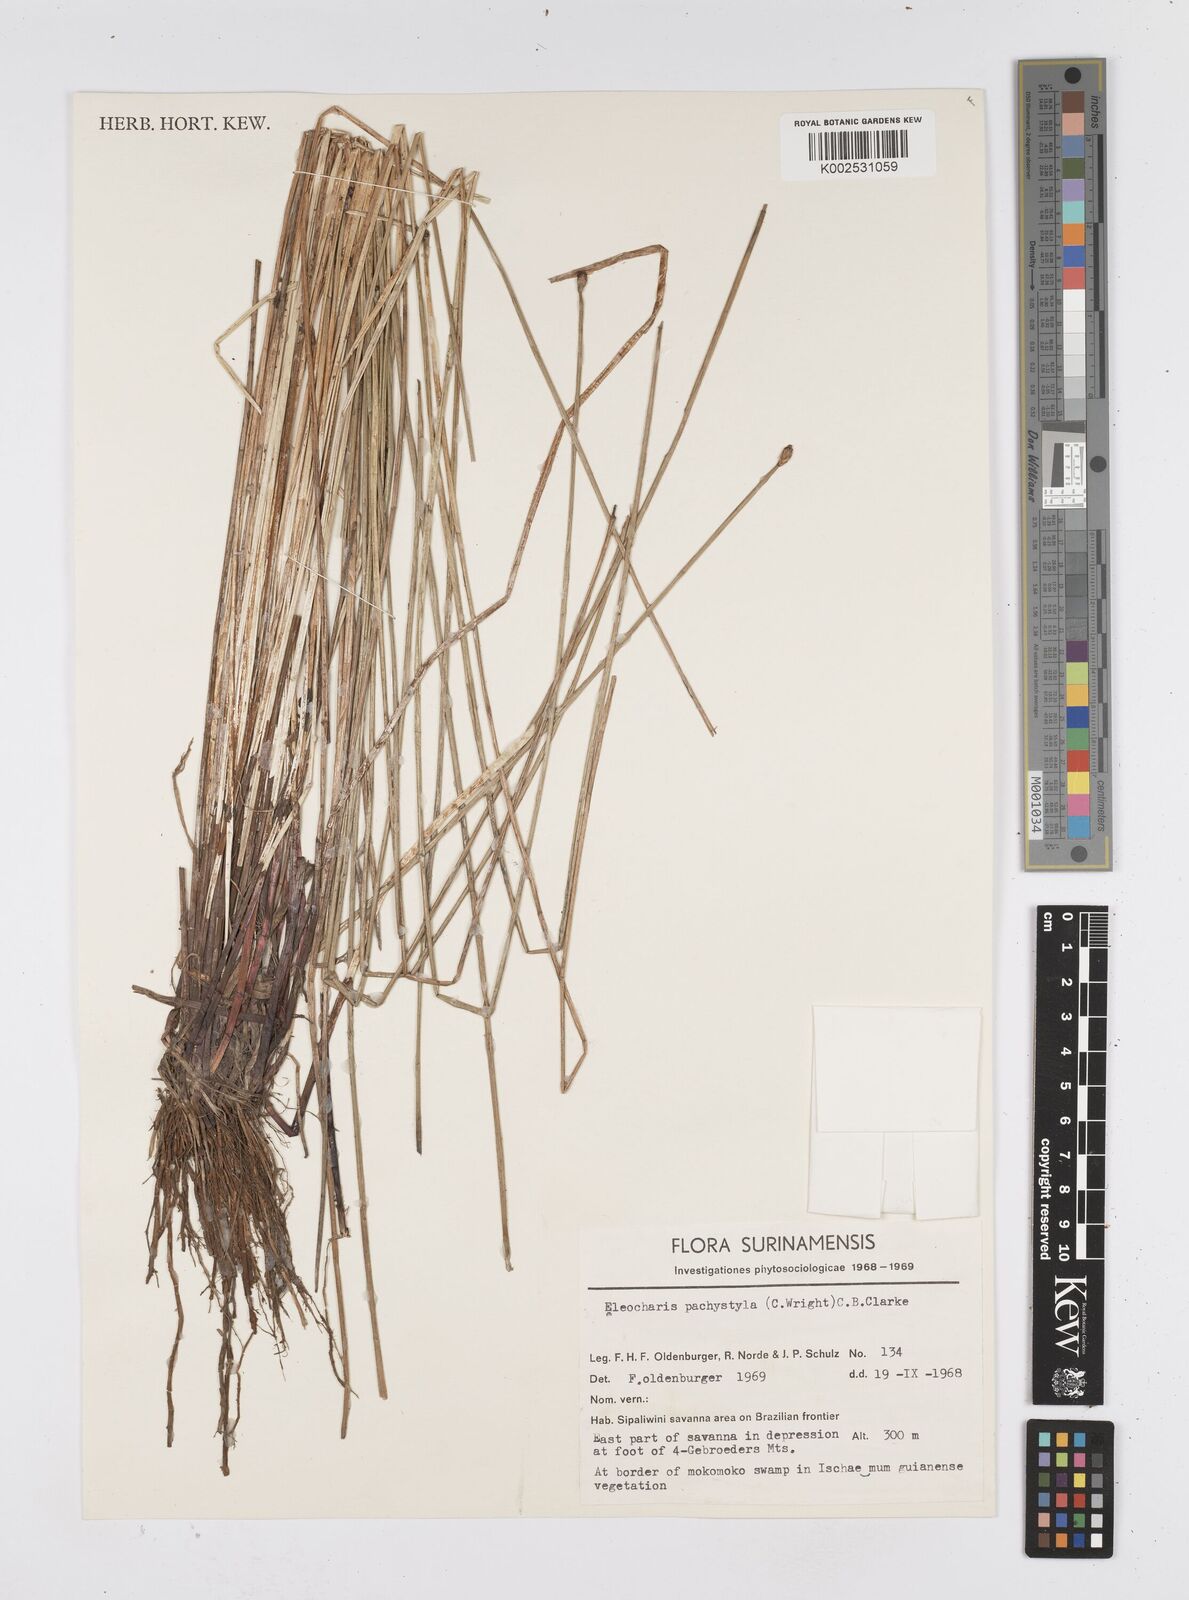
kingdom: Plantae
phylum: Tracheophyta
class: Liliopsida
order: Poales
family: Cyperaceae
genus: Eleocharis
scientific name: Eleocharis pachystyla
